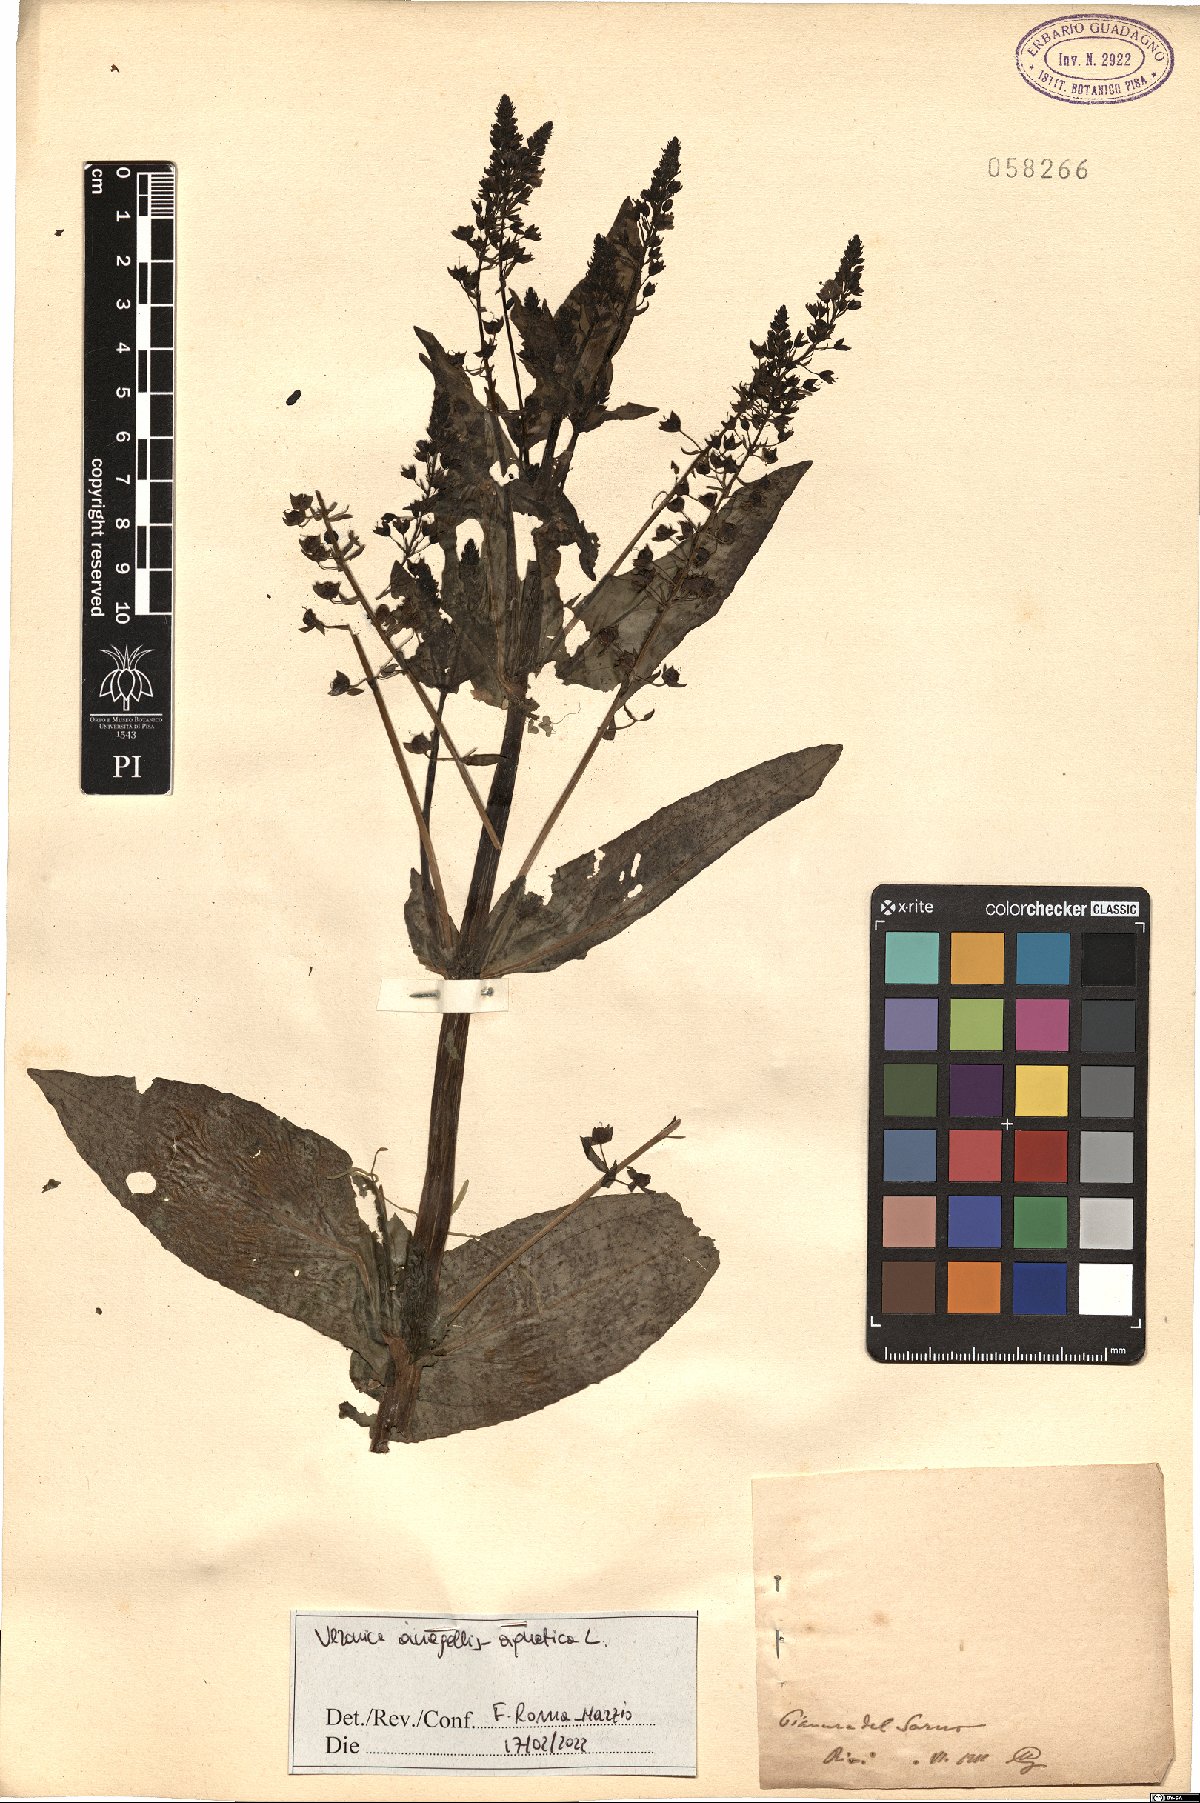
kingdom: Plantae
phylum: Tracheophyta
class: Magnoliopsida
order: Lamiales
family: Plantaginaceae
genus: Veronica
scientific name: Veronica anagallis-aquatica
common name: Water speedwell
